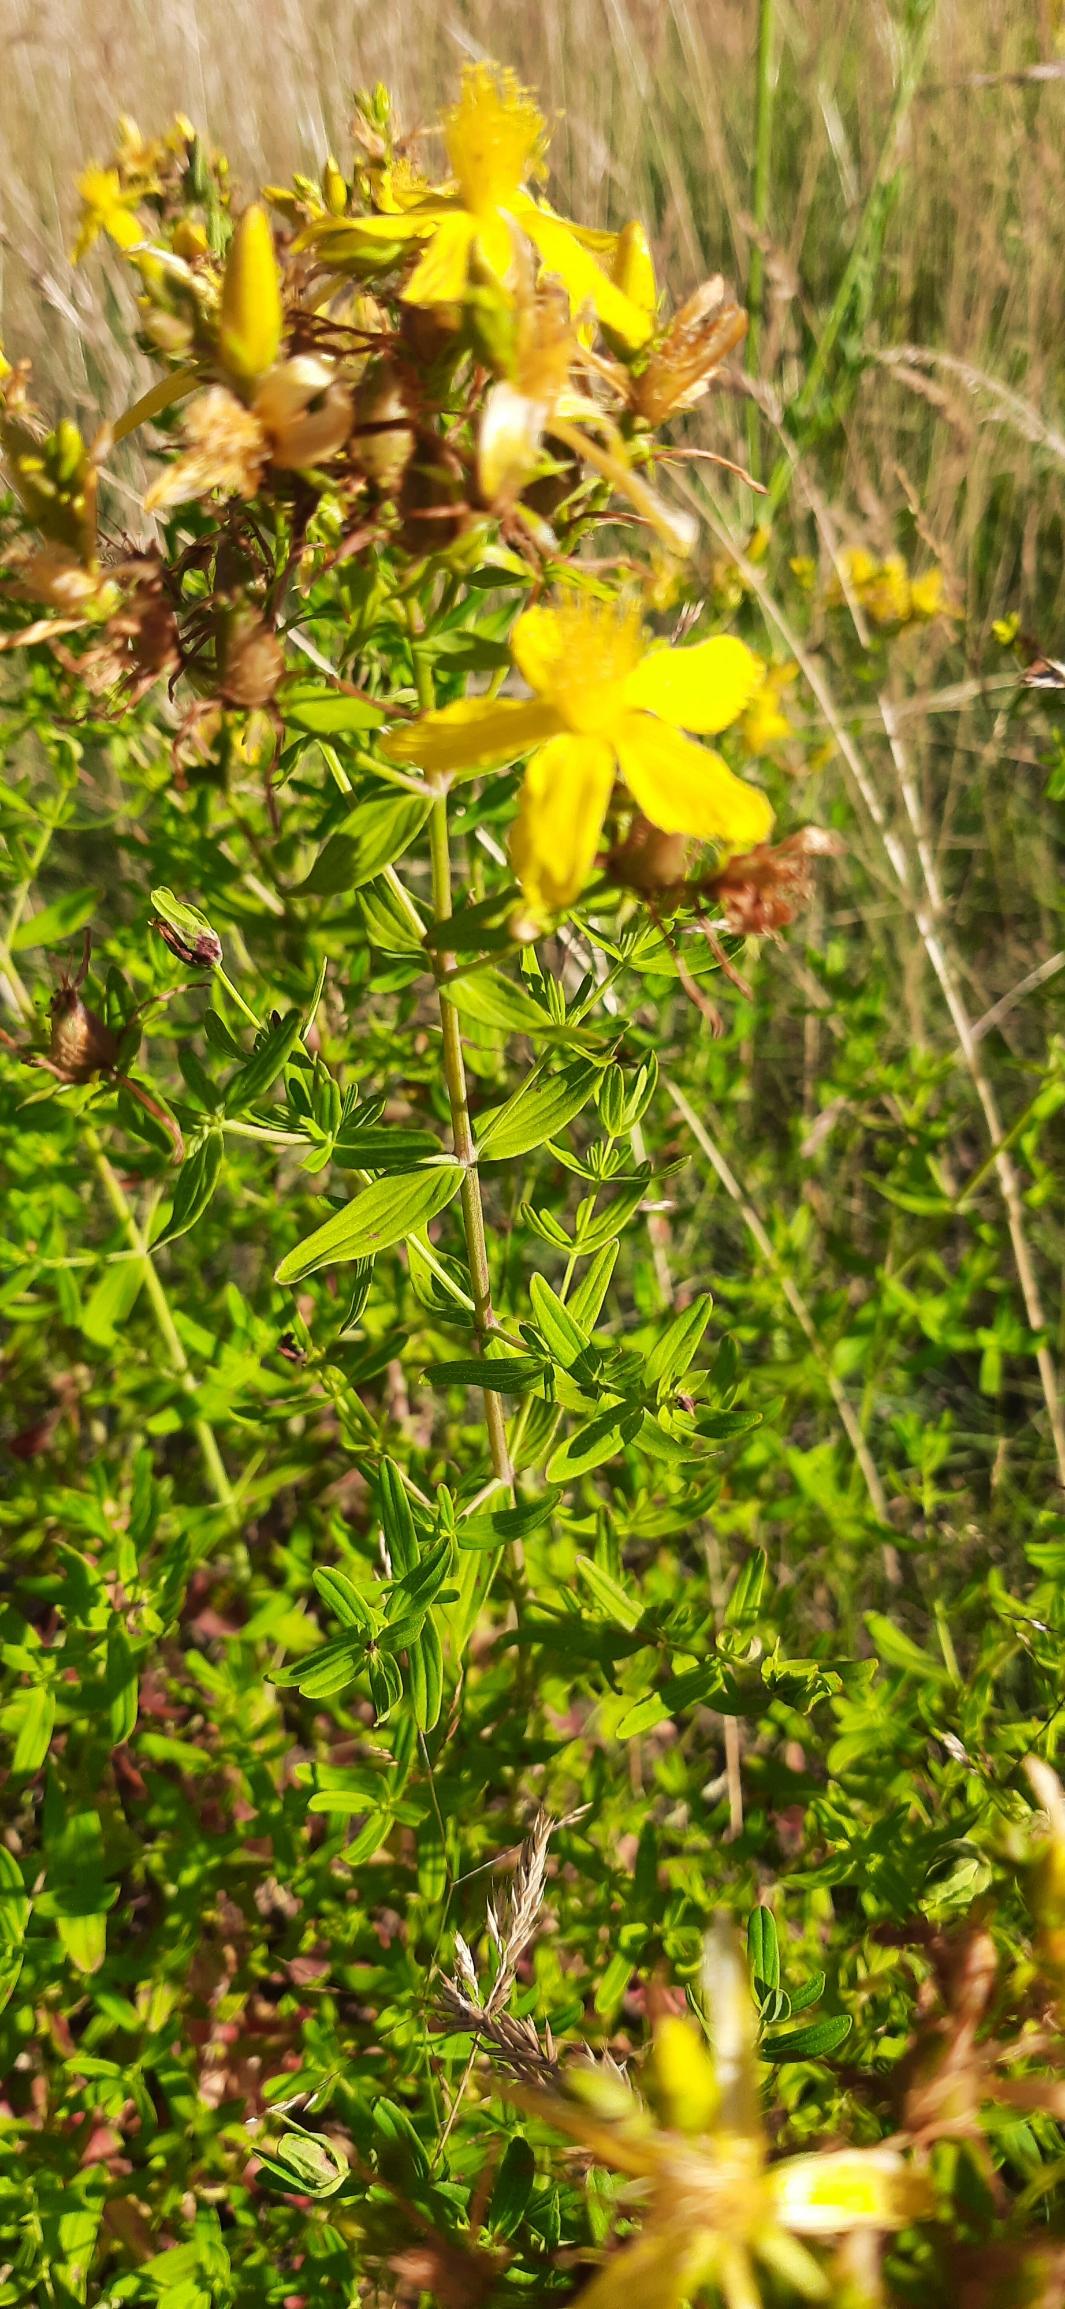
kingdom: Plantae
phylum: Tracheophyta
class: Magnoliopsida
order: Malpighiales
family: Hypericaceae
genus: Hypericum
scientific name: Hypericum perforatum
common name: Prikbladet perikon
